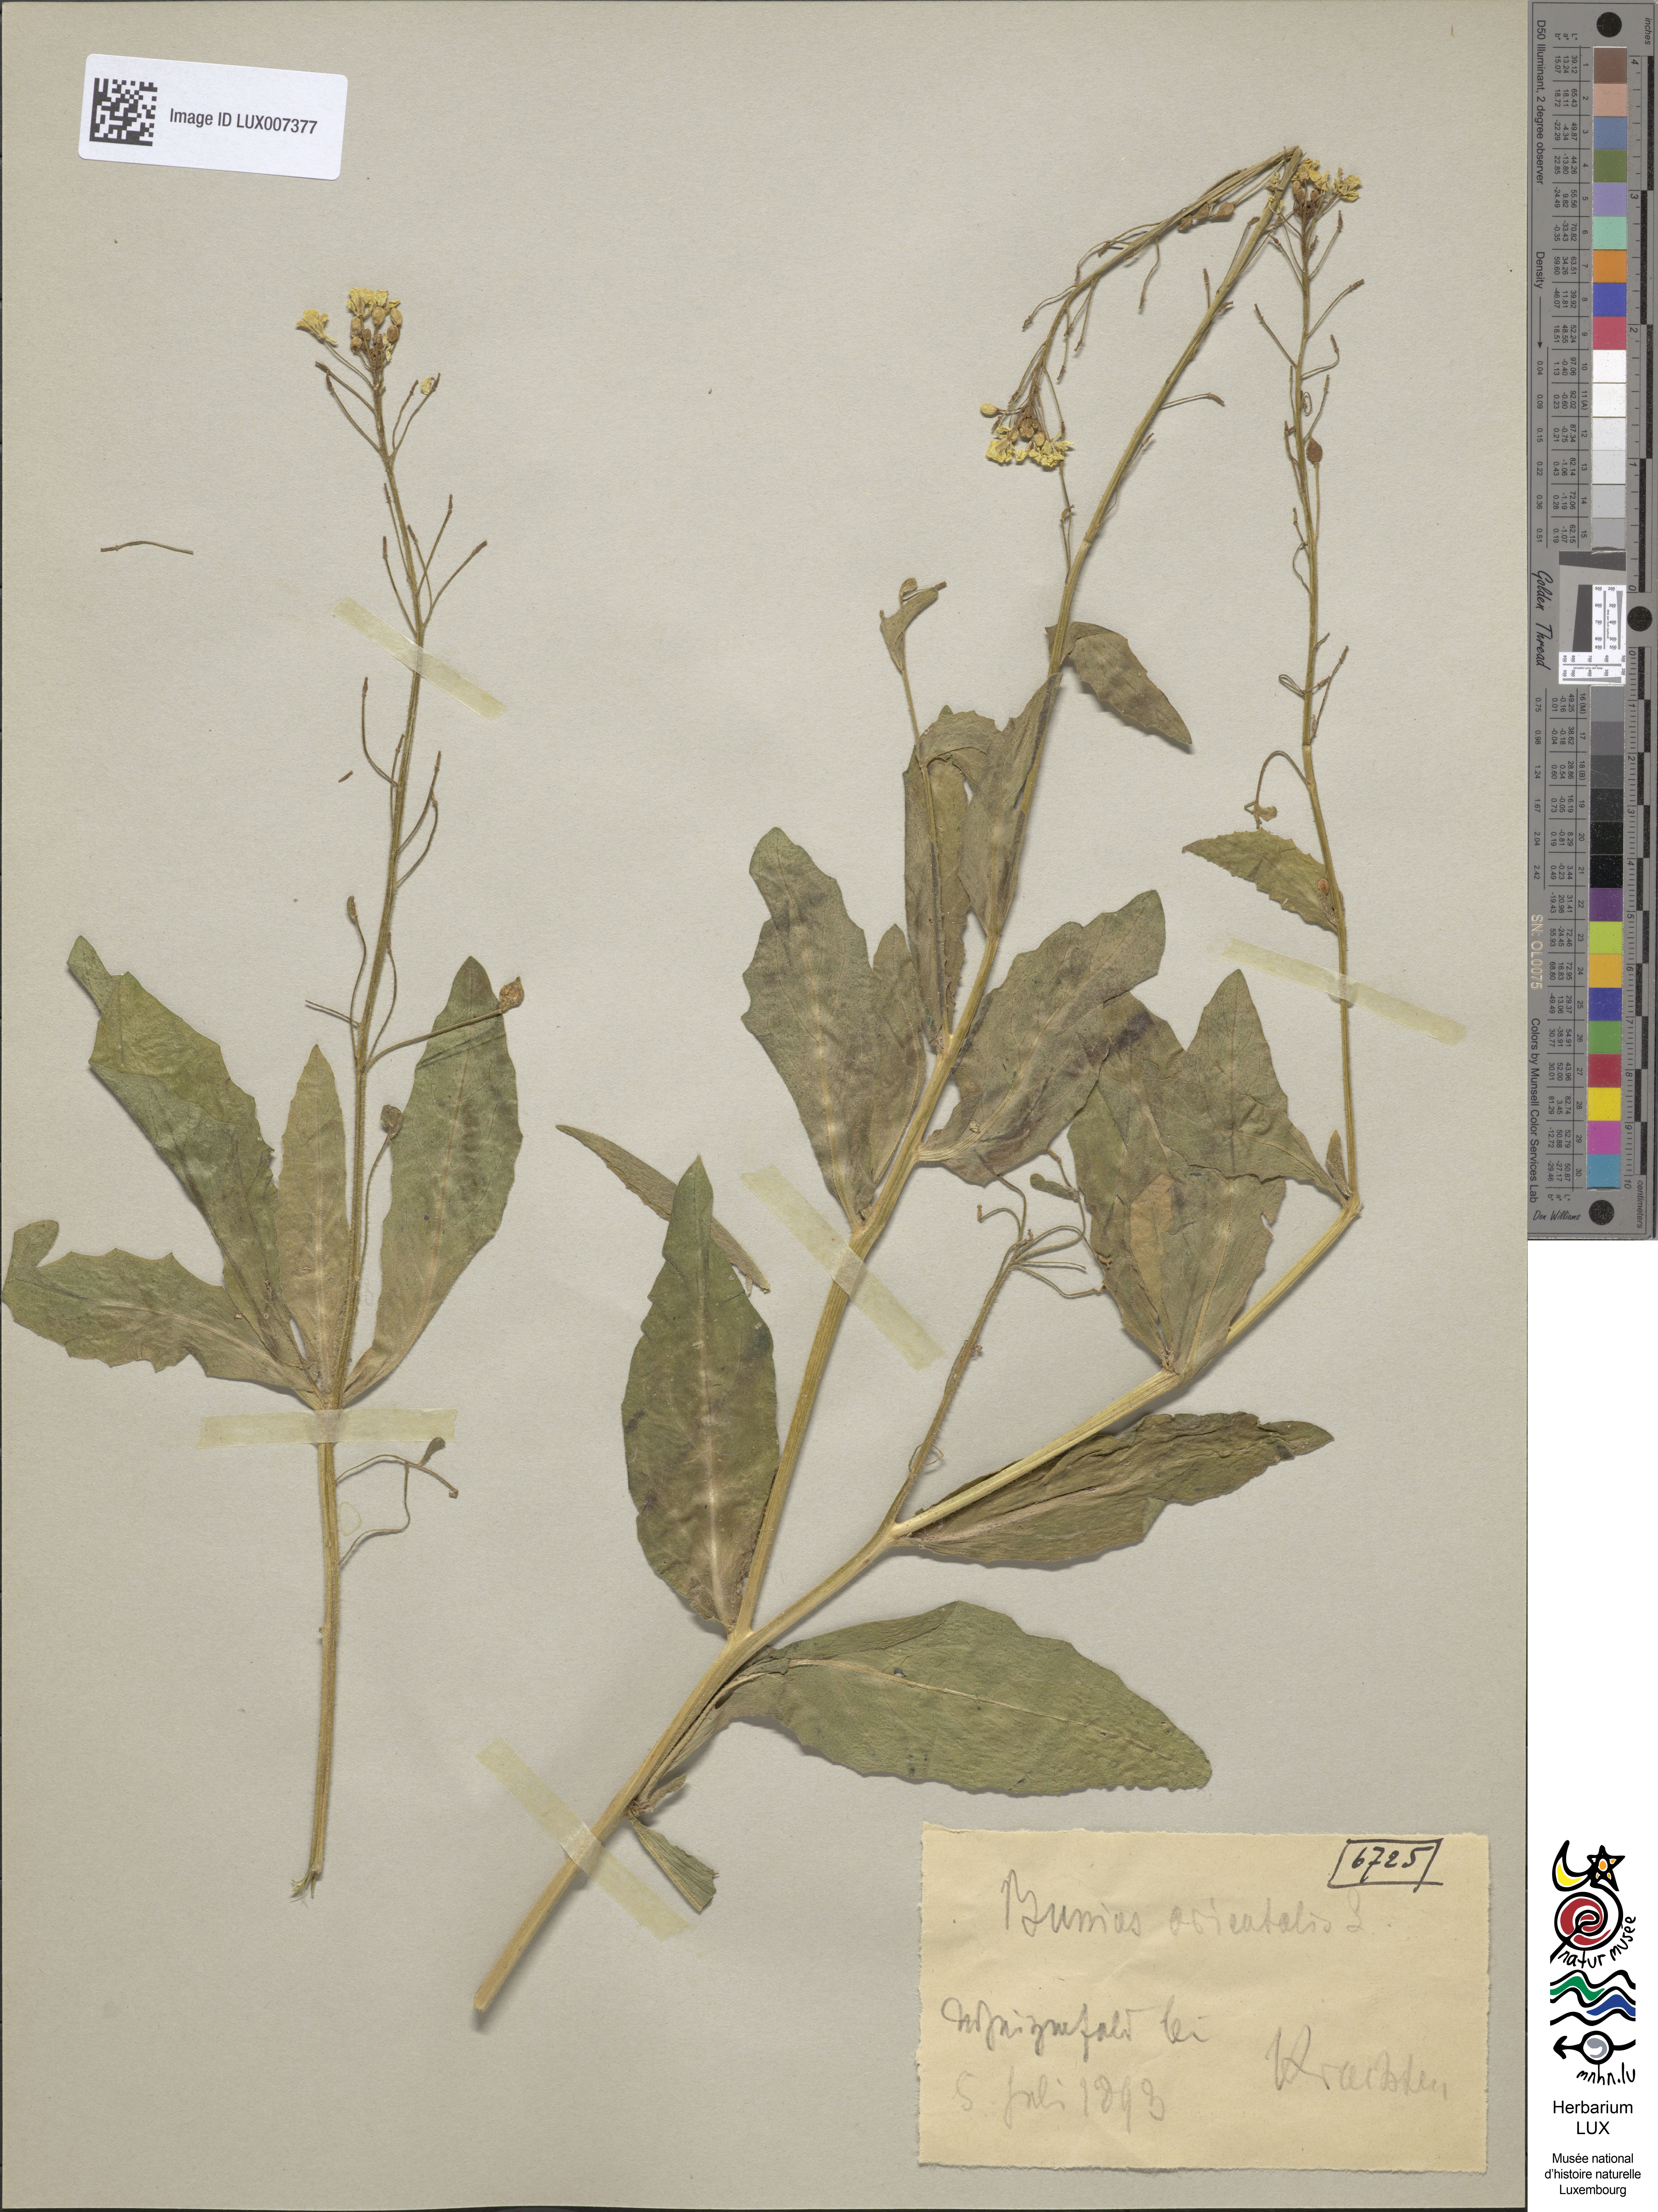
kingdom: Plantae
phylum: Tracheophyta
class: Magnoliopsida
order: Brassicales
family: Brassicaceae
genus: Bunias
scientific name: Bunias orientalis
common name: Warty-cabbage
